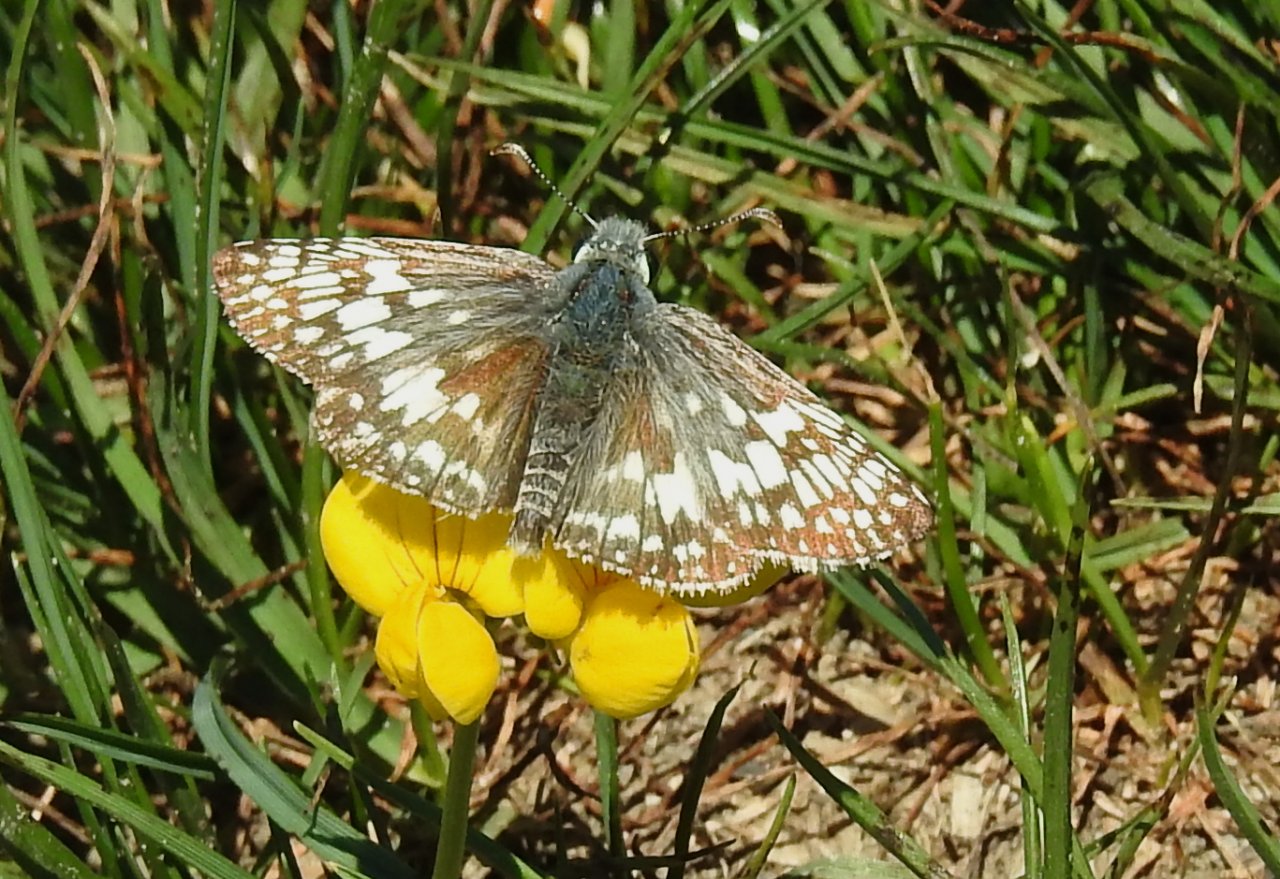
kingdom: Animalia
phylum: Arthropoda
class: Insecta
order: Lepidoptera
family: Hesperiidae
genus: Pyrgus
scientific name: Pyrgus communis
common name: Common Checkered-Skipper
